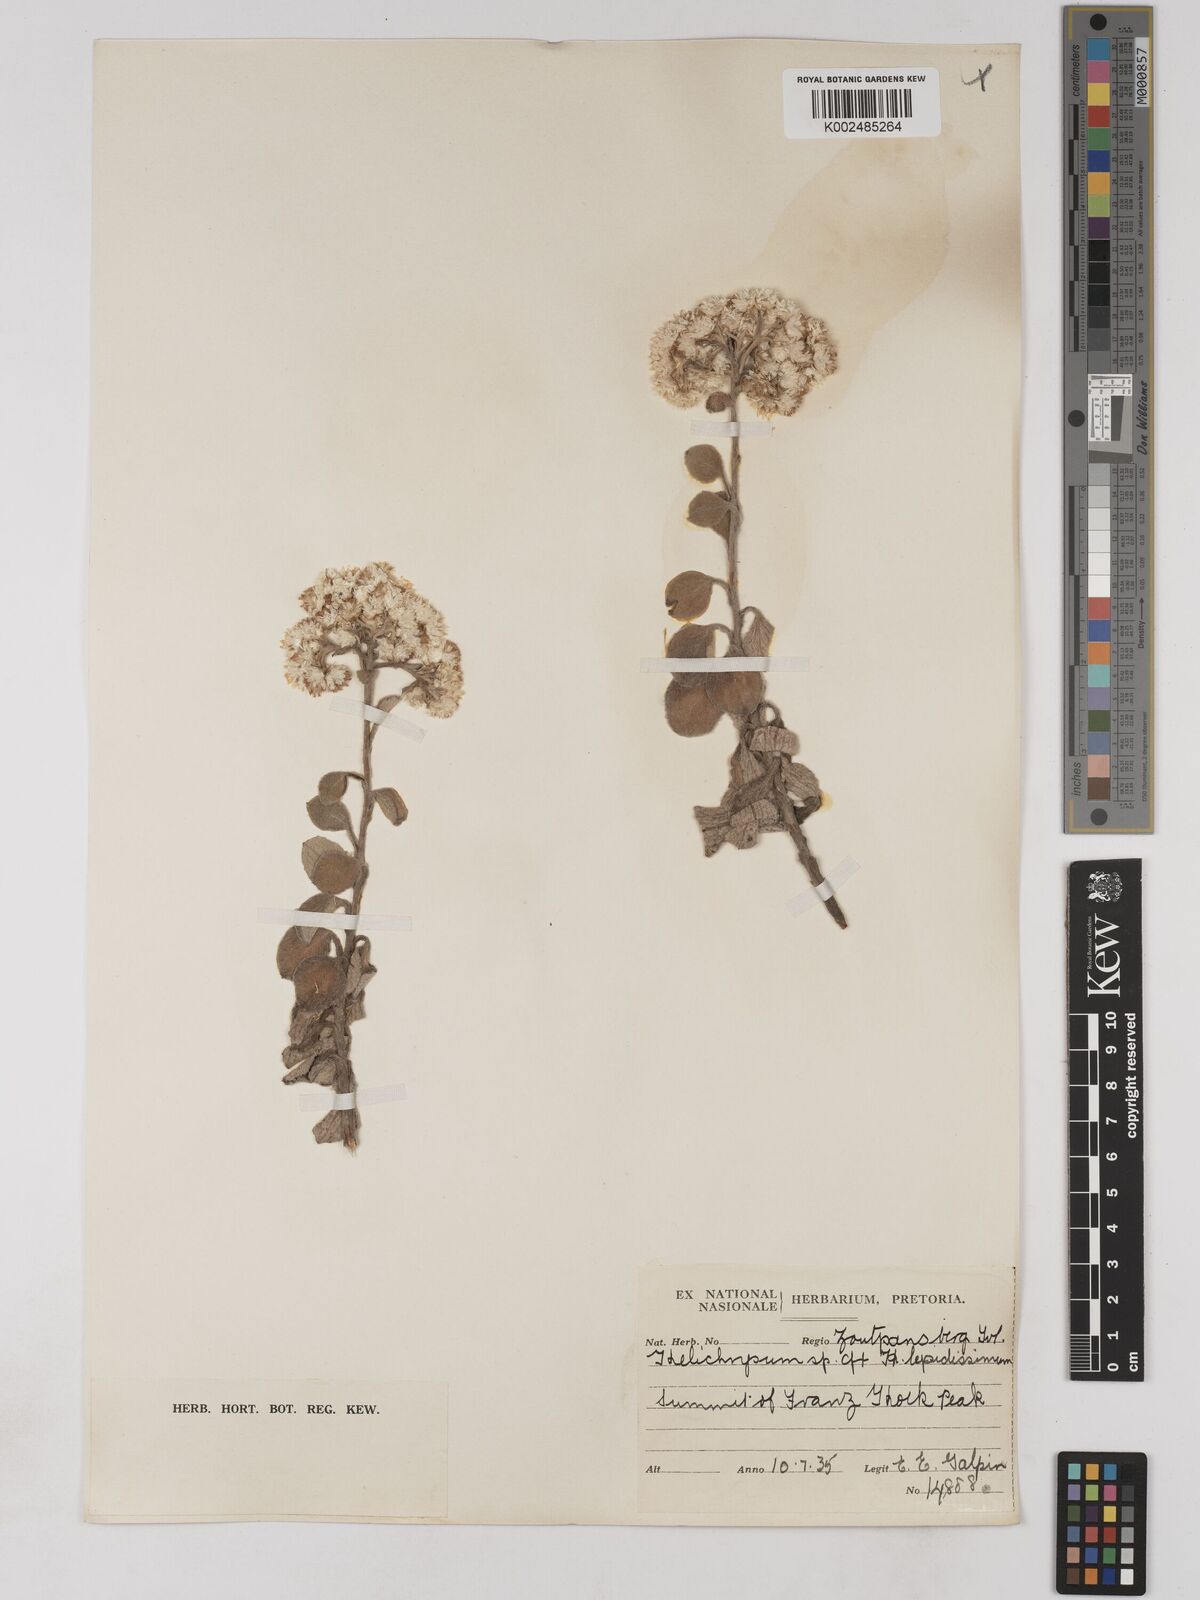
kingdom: Plantae
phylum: Tracheophyta
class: Magnoliopsida
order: Asterales
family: Asteraceae
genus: Helichrysum
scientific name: Helichrysum lepidissimum
